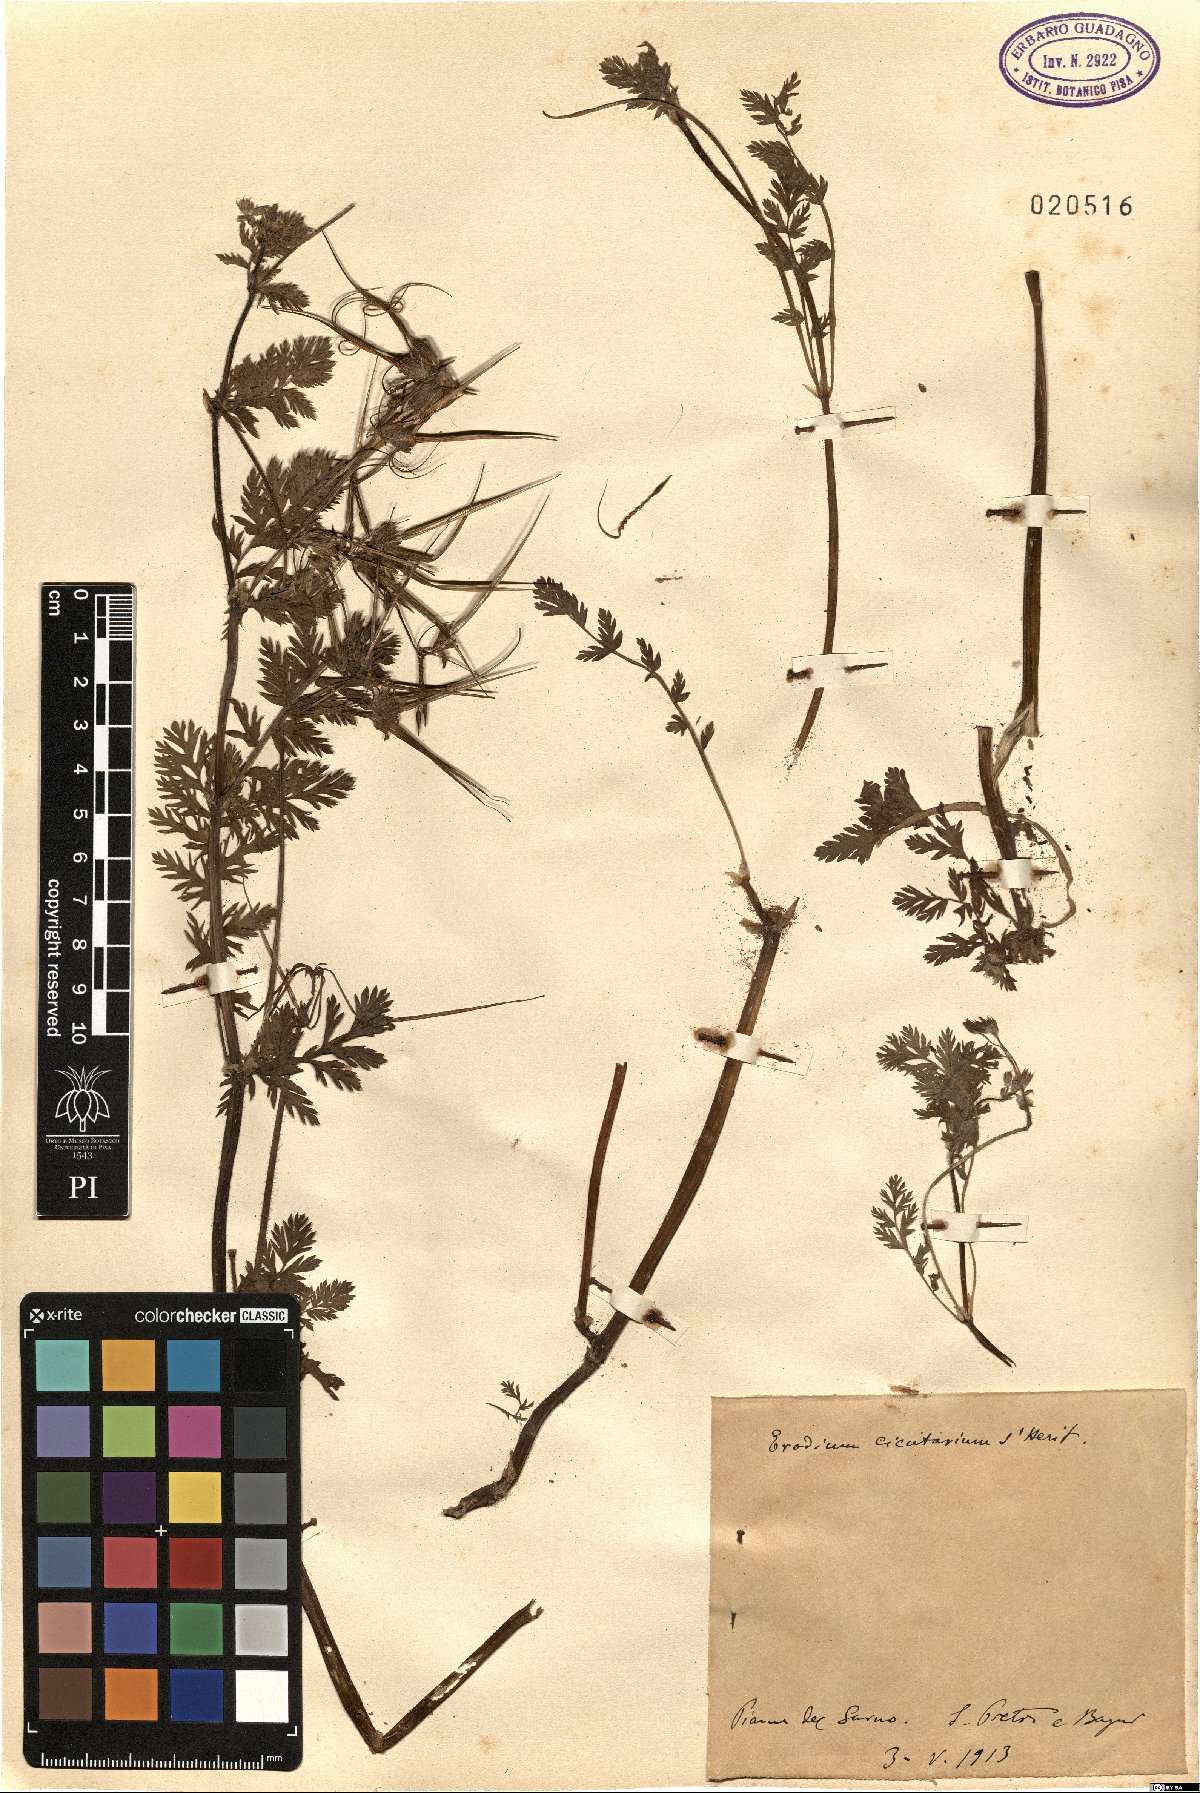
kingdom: Plantae
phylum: Tracheophyta
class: Magnoliopsida
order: Geraniales
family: Geraniaceae
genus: Erodium
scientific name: Erodium cicutarium
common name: Common stork's-bill
